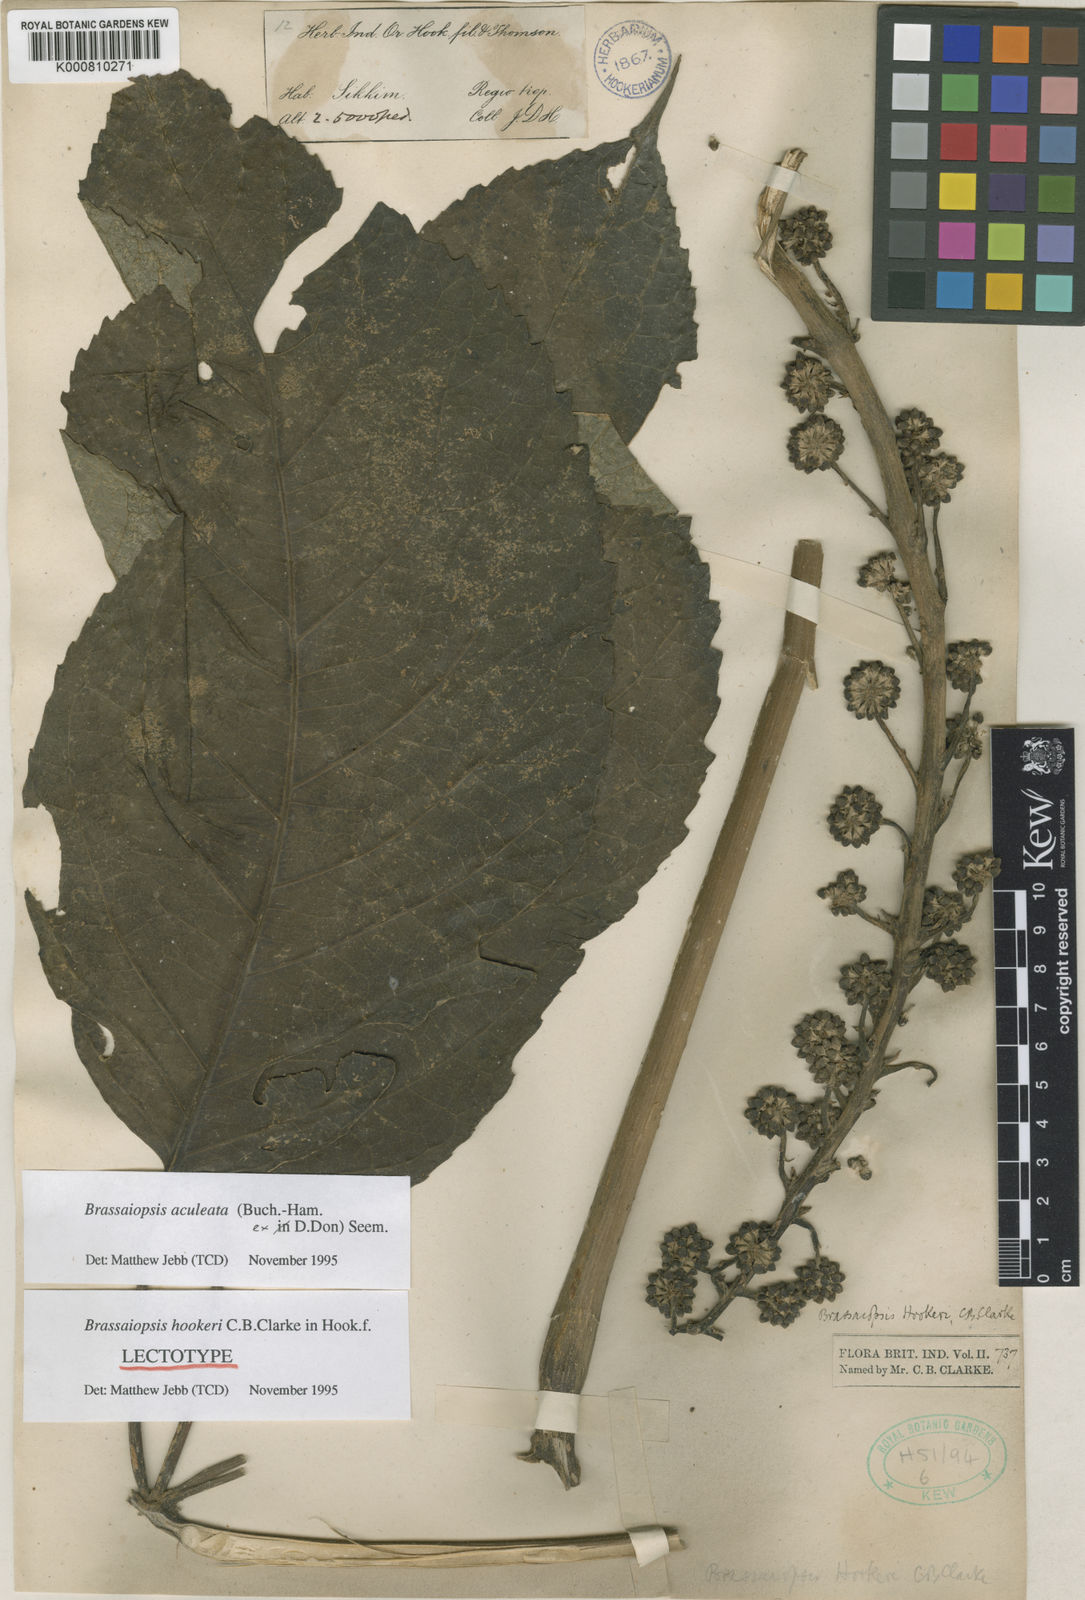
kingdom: Plantae
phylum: Tracheophyta
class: Magnoliopsida
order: Apiales
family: Araliaceae
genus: Brassaiopsis
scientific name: Brassaiopsis aculeata
